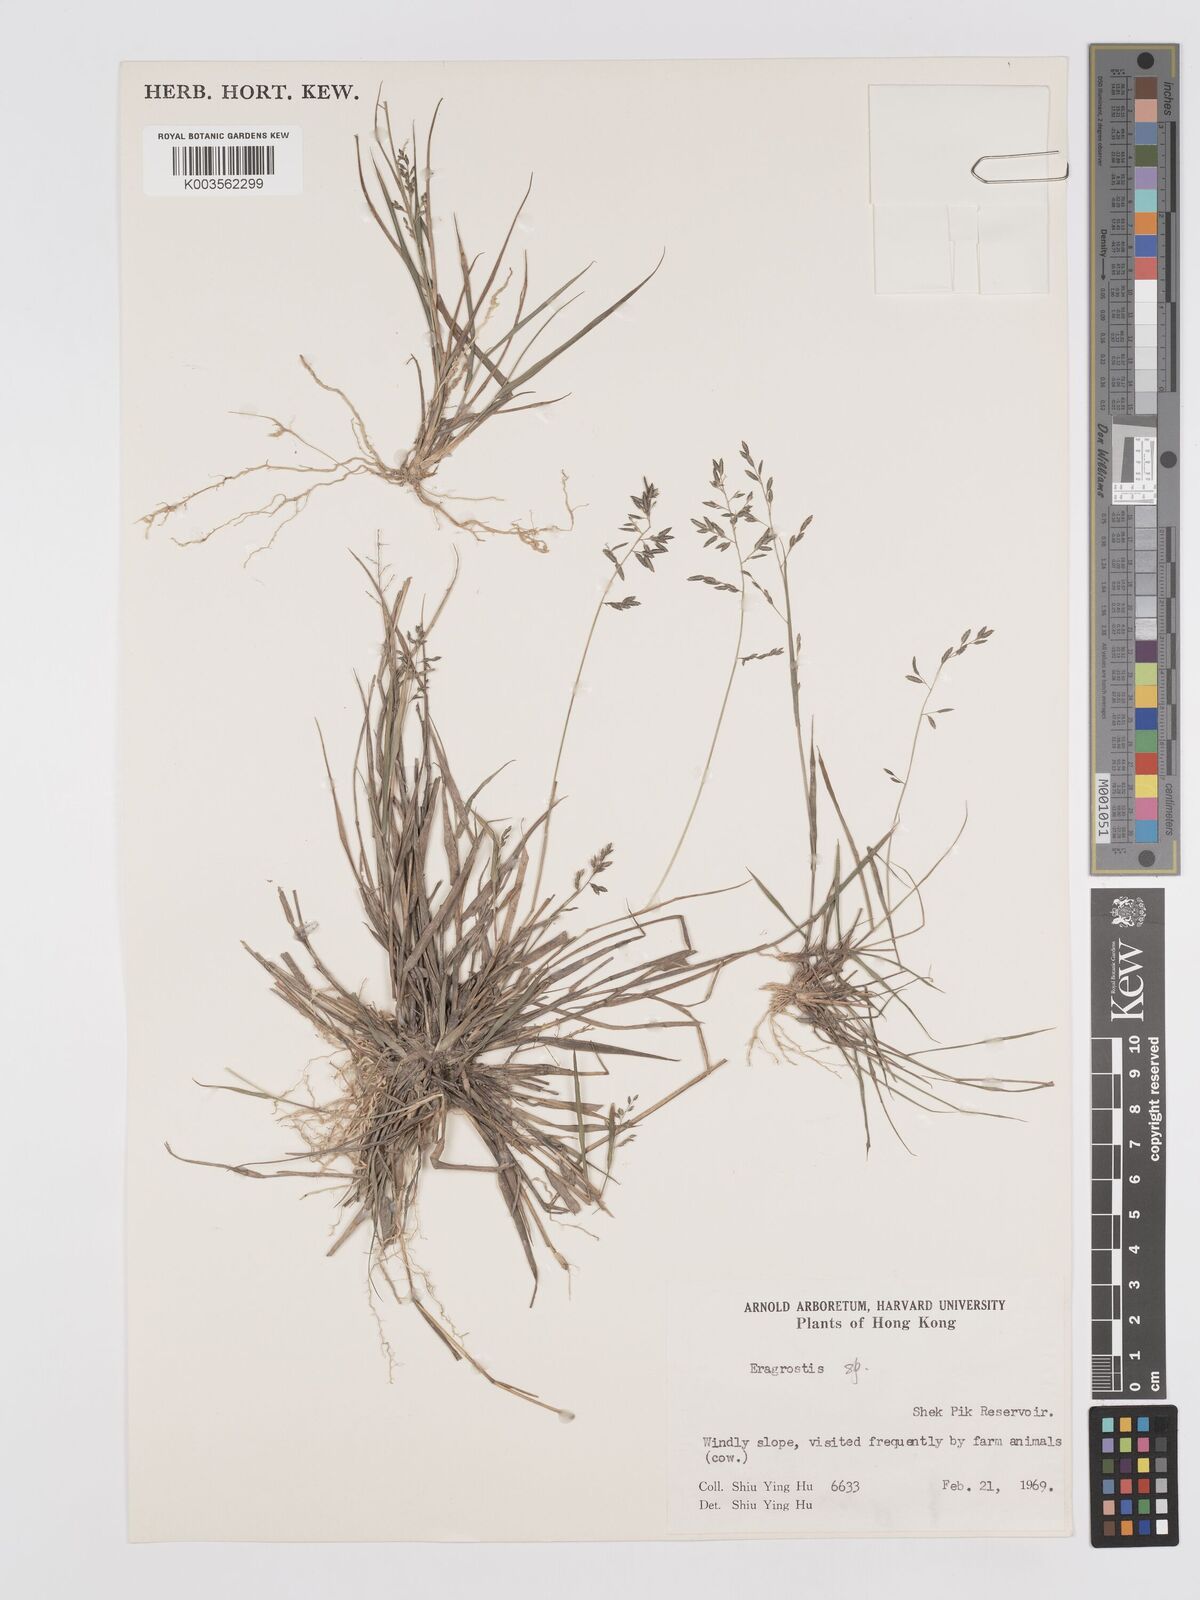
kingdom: Plantae
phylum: Tracheophyta
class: Liliopsida
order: Poales
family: Poaceae
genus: Eragrostis
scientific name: Eragrostis subsecunda
